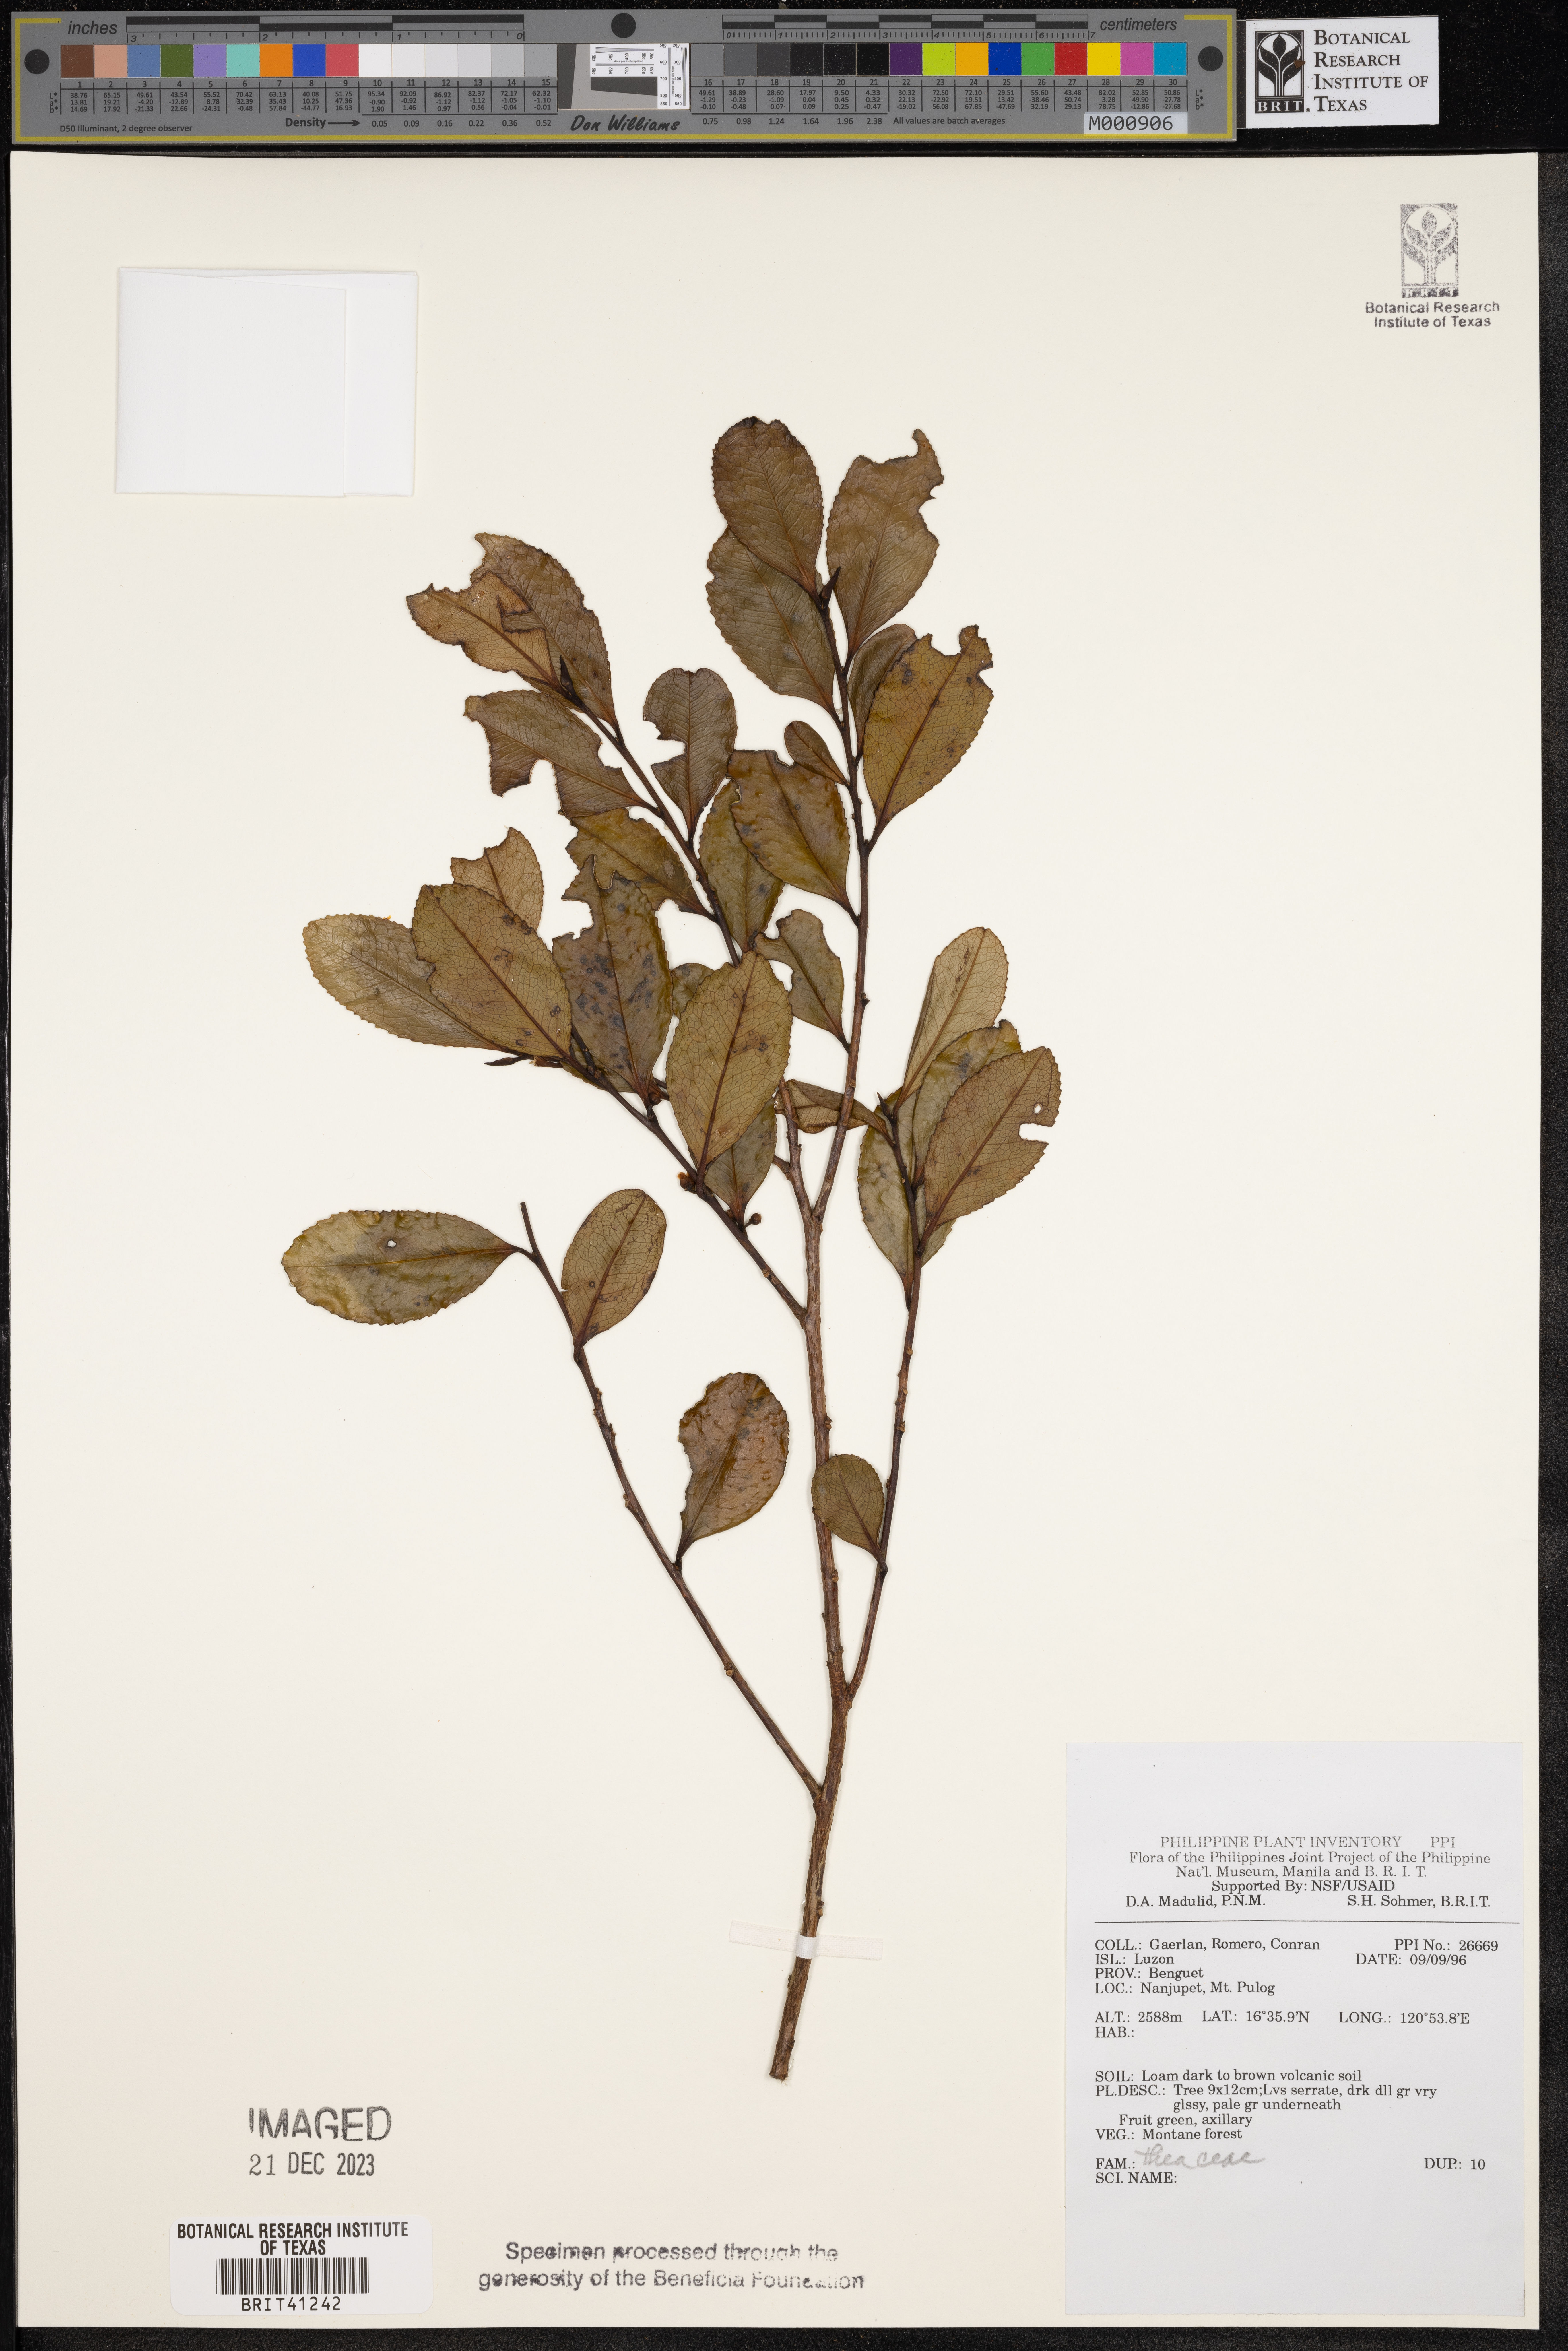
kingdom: Plantae
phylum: Tracheophyta
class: Magnoliopsida
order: Ericales
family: Theaceae
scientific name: Theaceae
